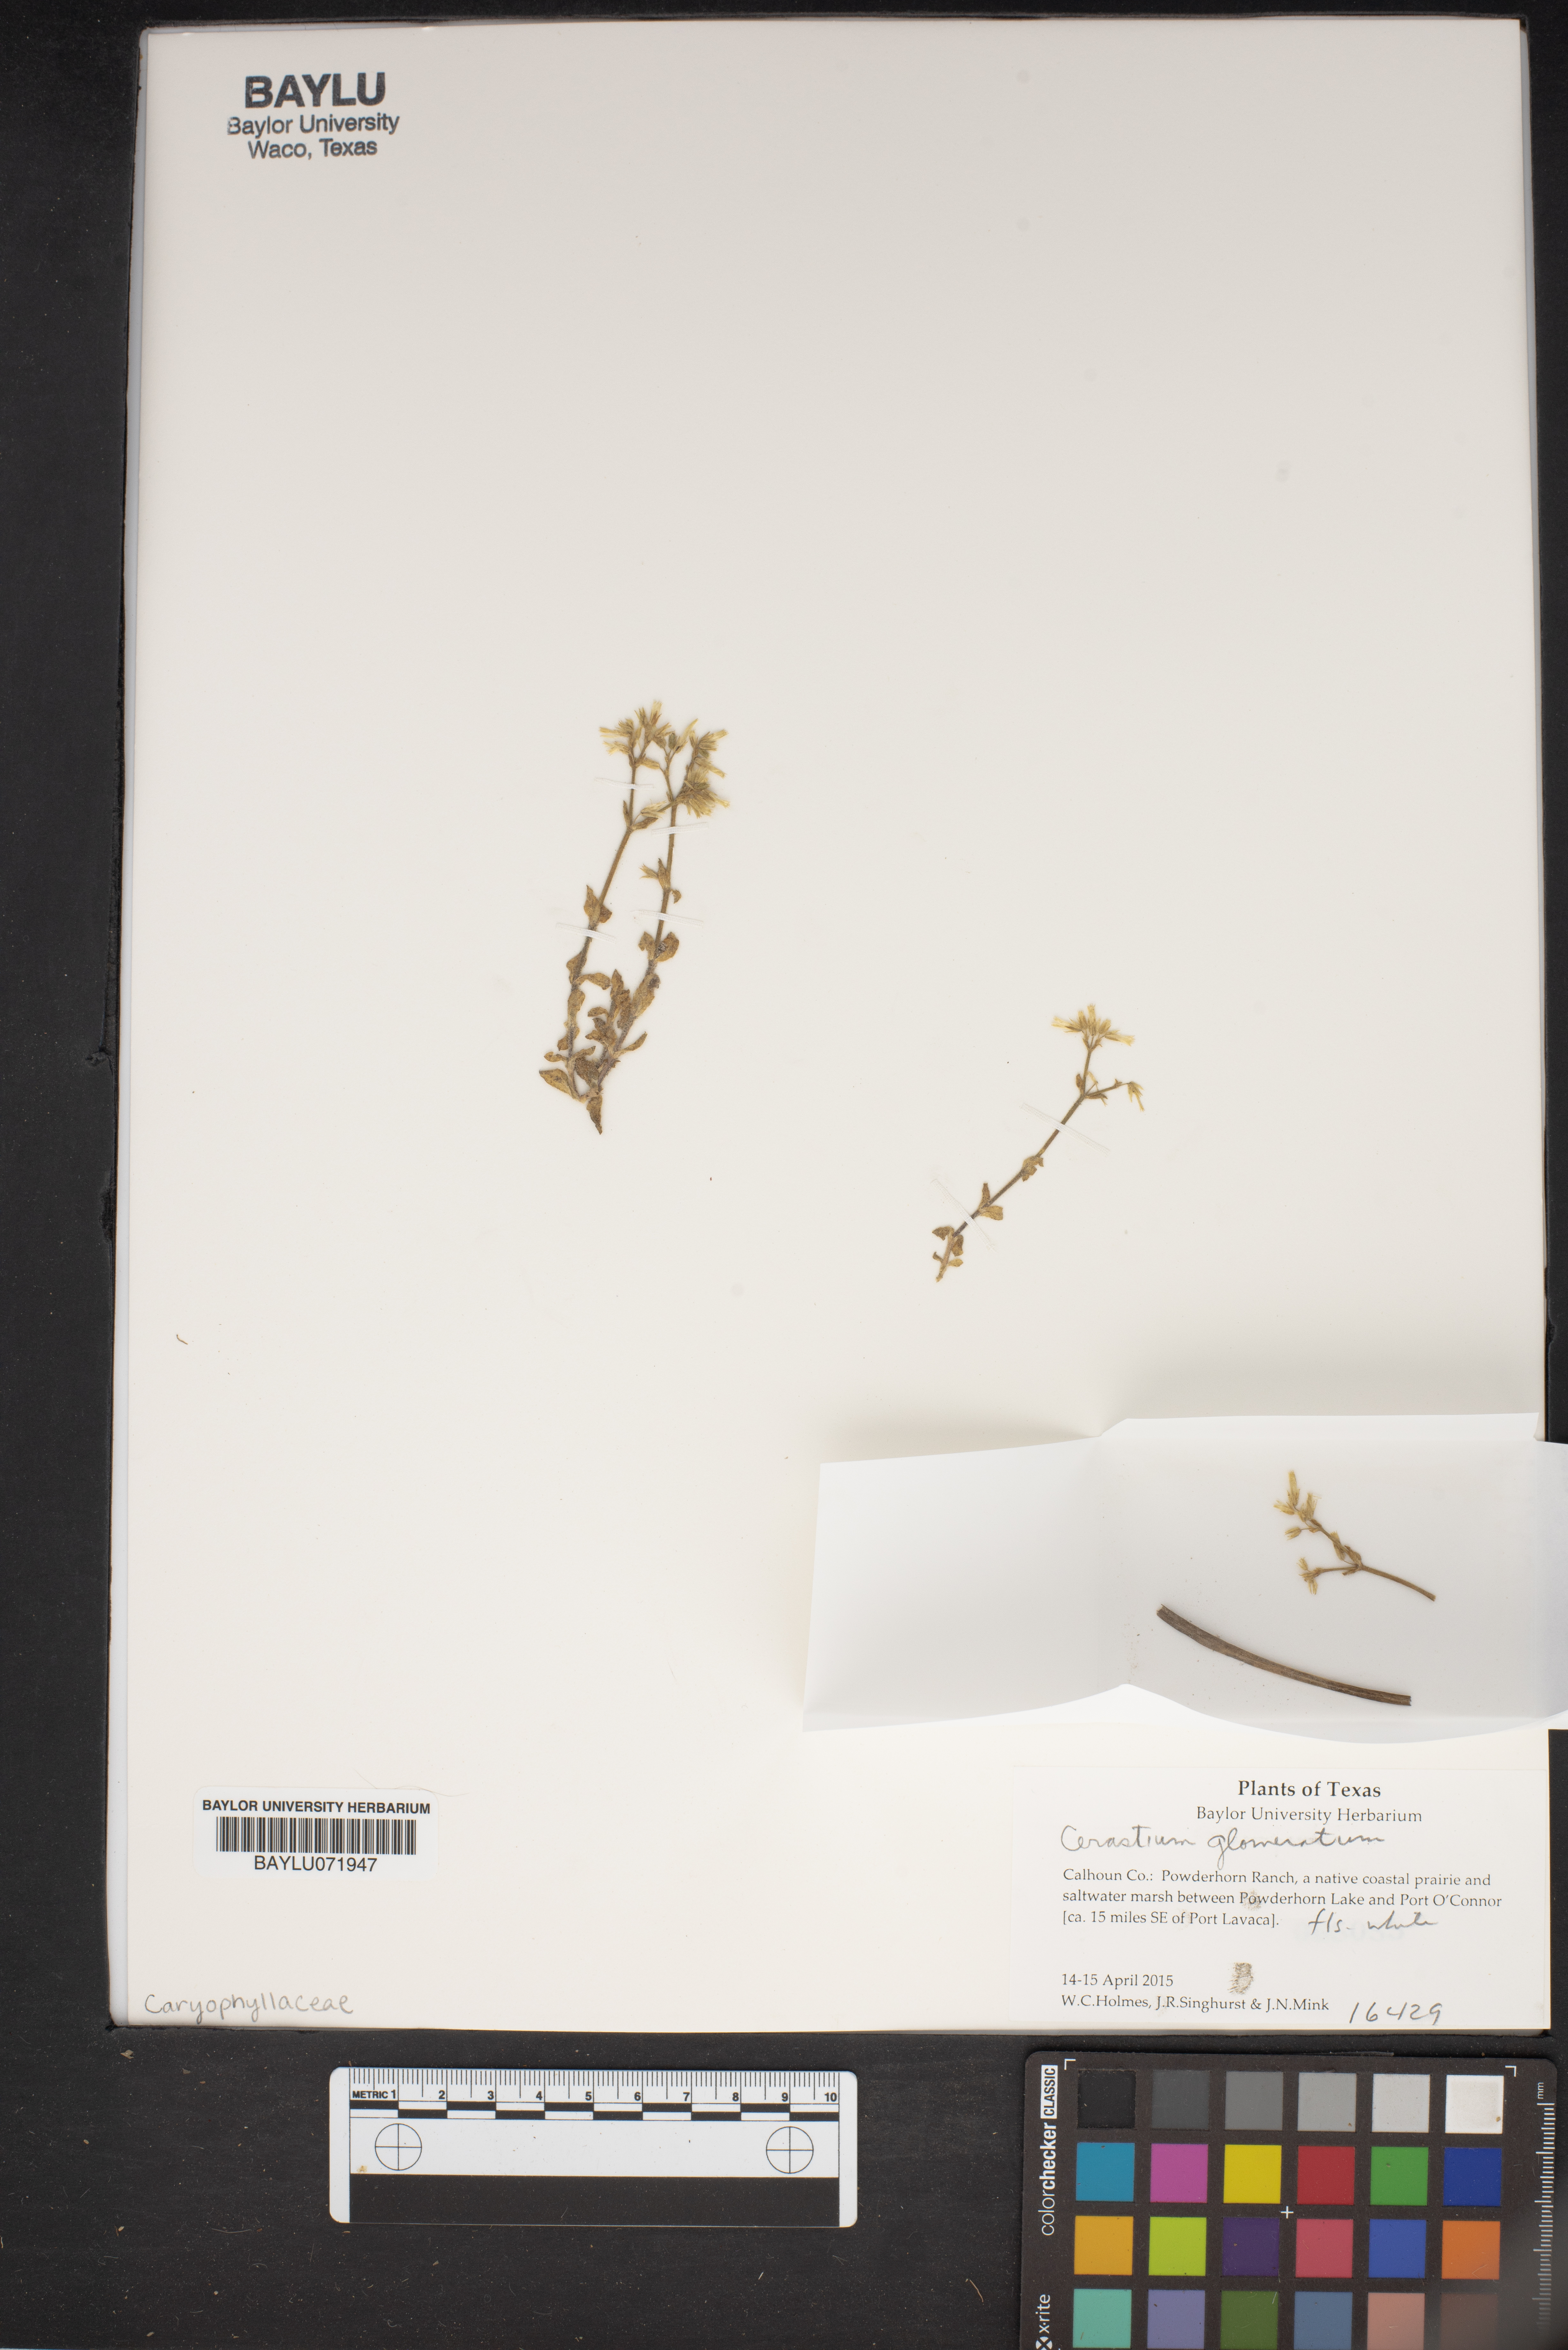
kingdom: Plantae
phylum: Tracheophyta
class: Magnoliopsida
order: Caryophyllales
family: Caryophyllaceae
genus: Cerastium
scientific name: Cerastium glomeratum
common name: Sticky chickweed
